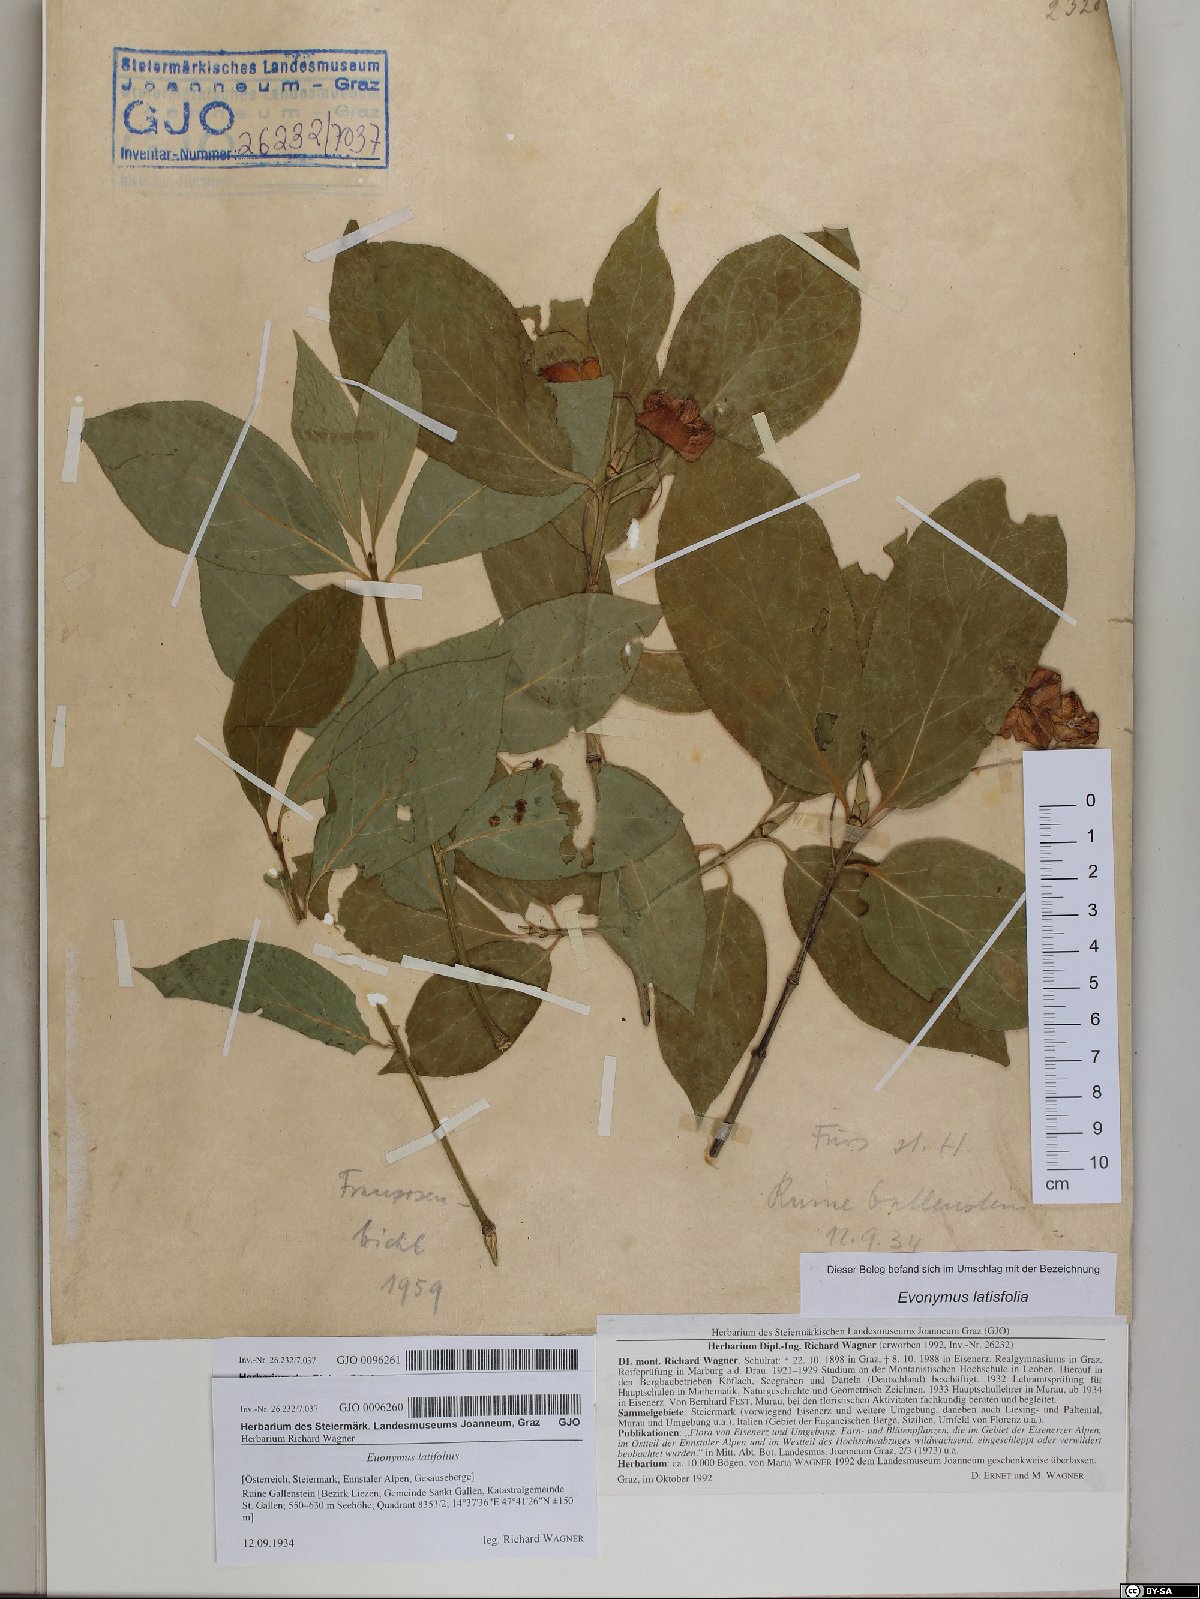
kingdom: Plantae
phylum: Tracheophyta
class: Magnoliopsida
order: Celastrales
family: Celastraceae
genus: Euonymus
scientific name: Euonymus latifolius
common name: Large-leaved spindle
